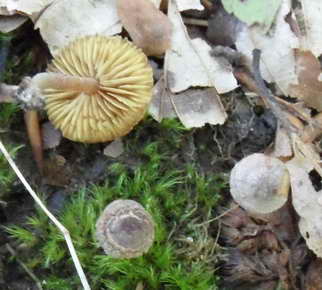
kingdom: Fungi
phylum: Basidiomycota
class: Agaricomycetes
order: Agaricales
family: Inocybaceae
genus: Inocybe
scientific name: Inocybe petiginosa
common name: liden trævlhat
